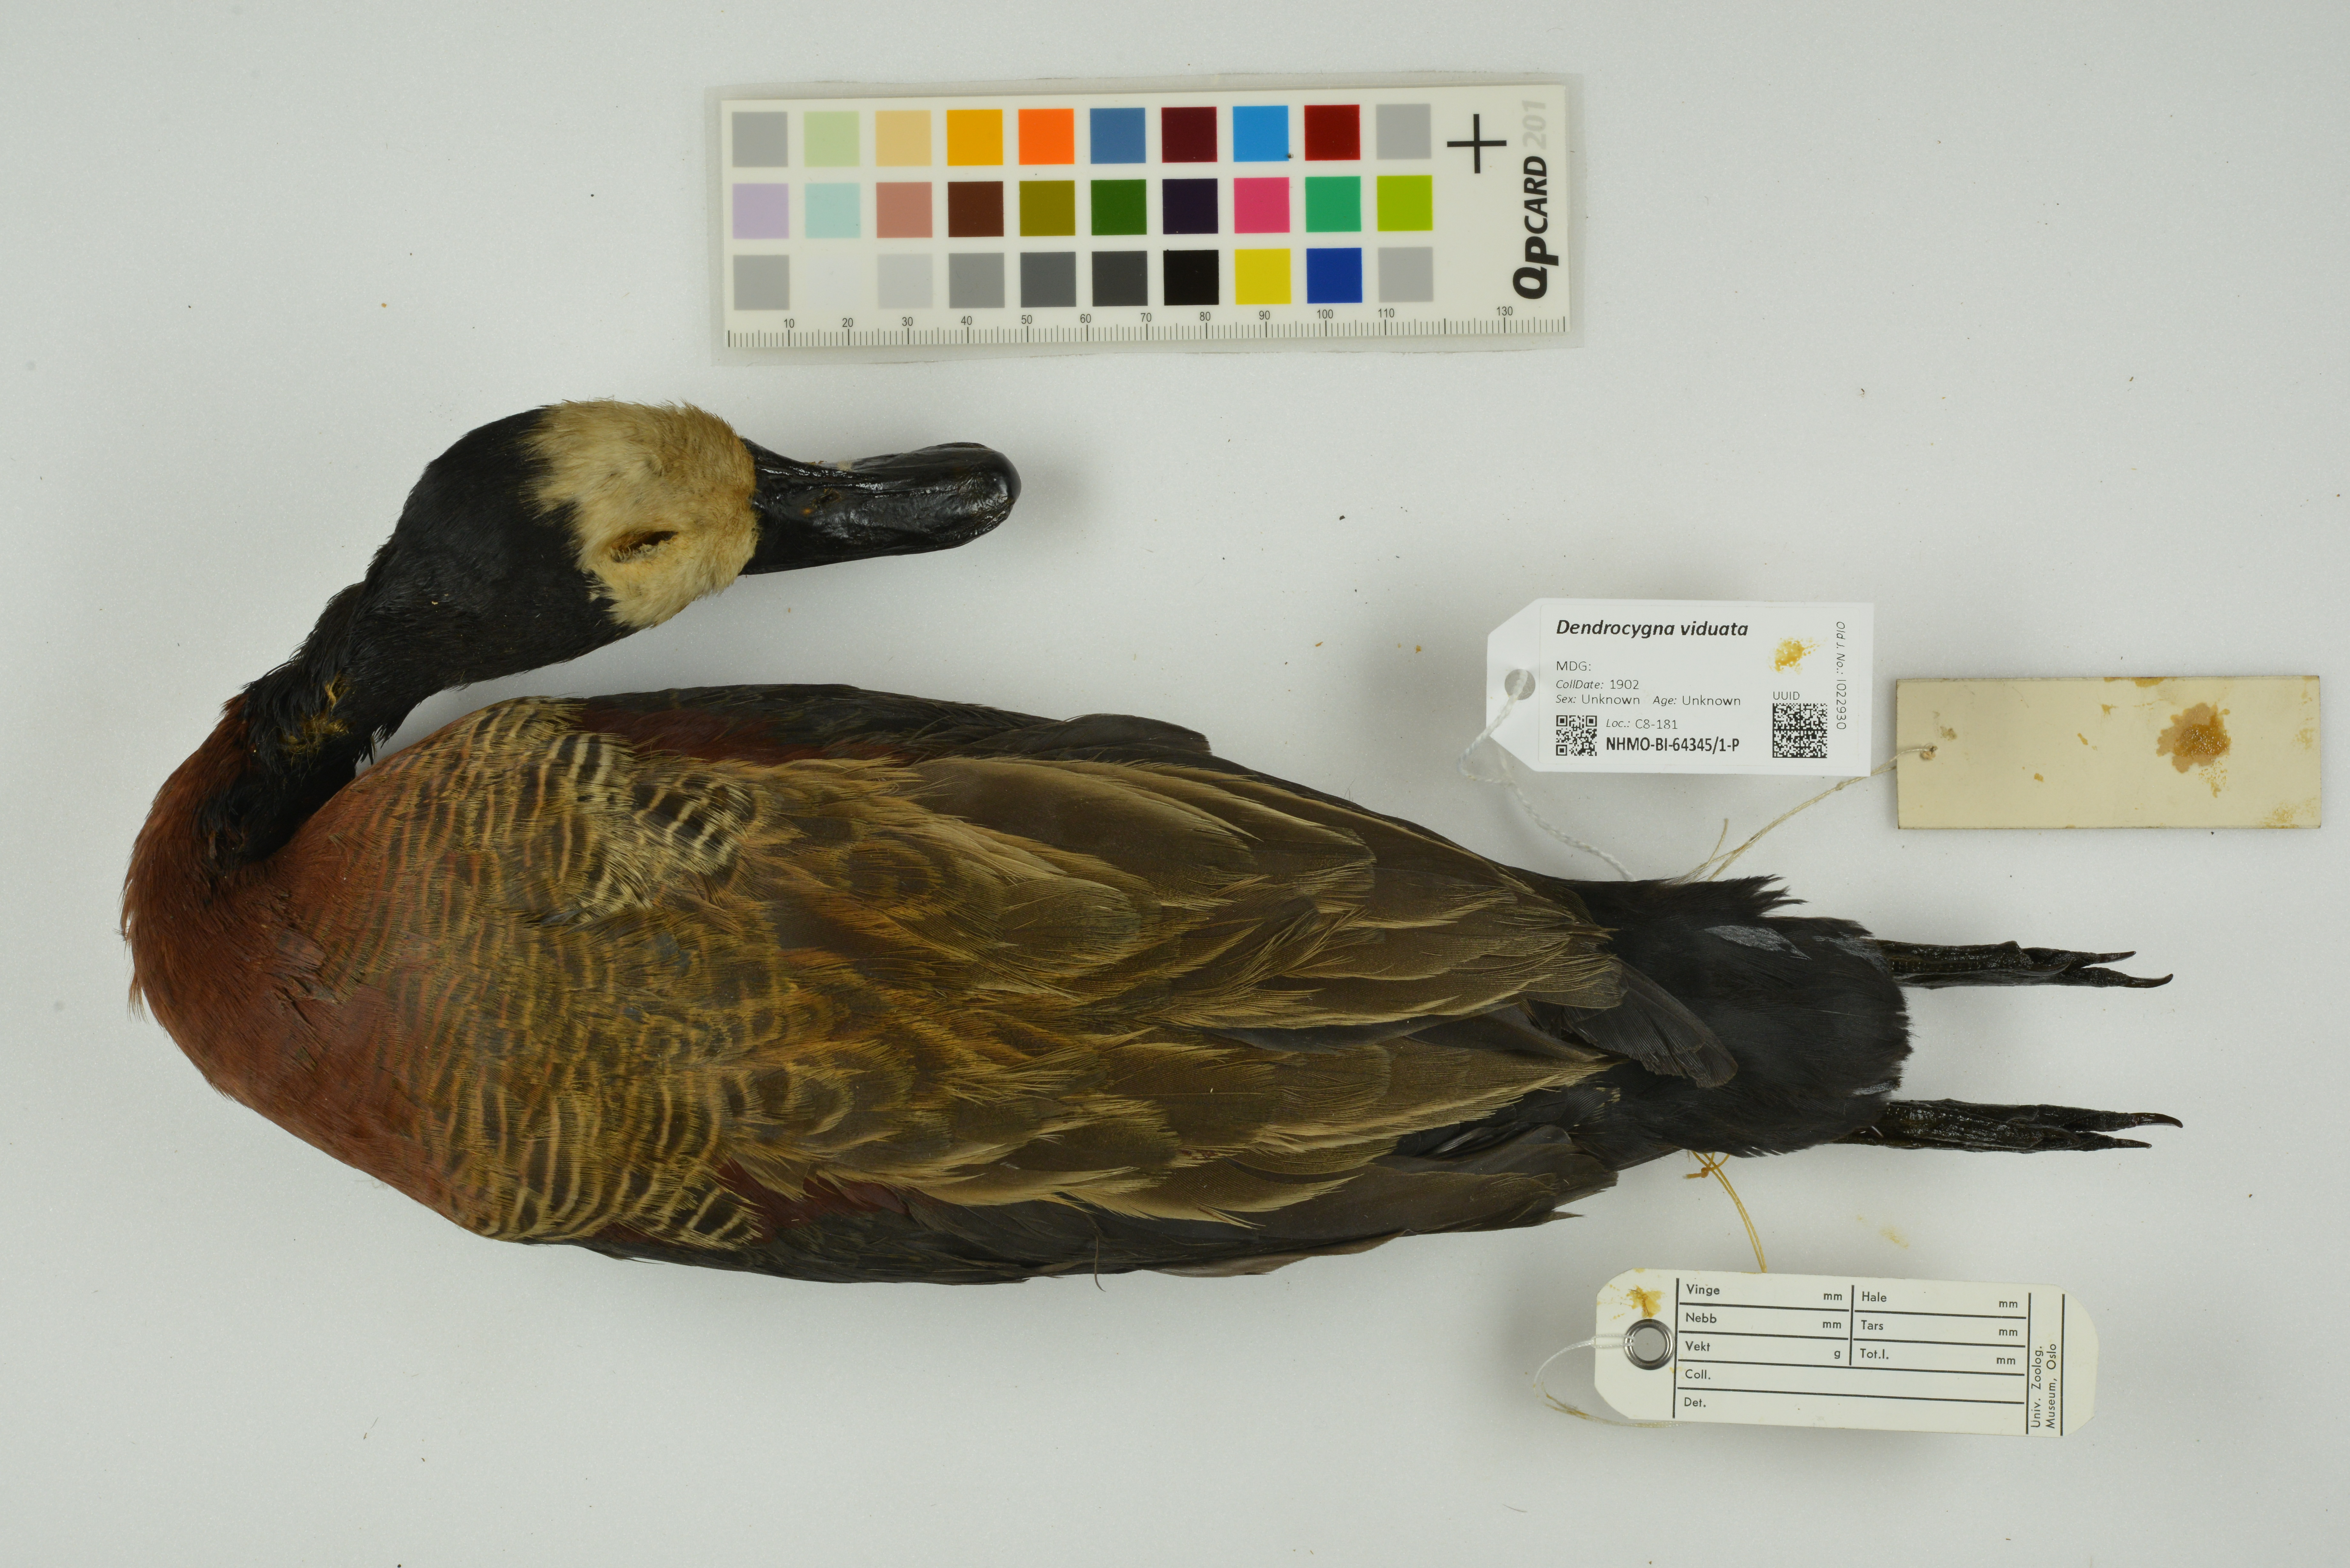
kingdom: Animalia
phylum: Chordata
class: Aves
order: Anseriformes
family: Anatidae
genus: Dendrocygna
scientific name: Dendrocygna viduata
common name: White-faced whistling duck
